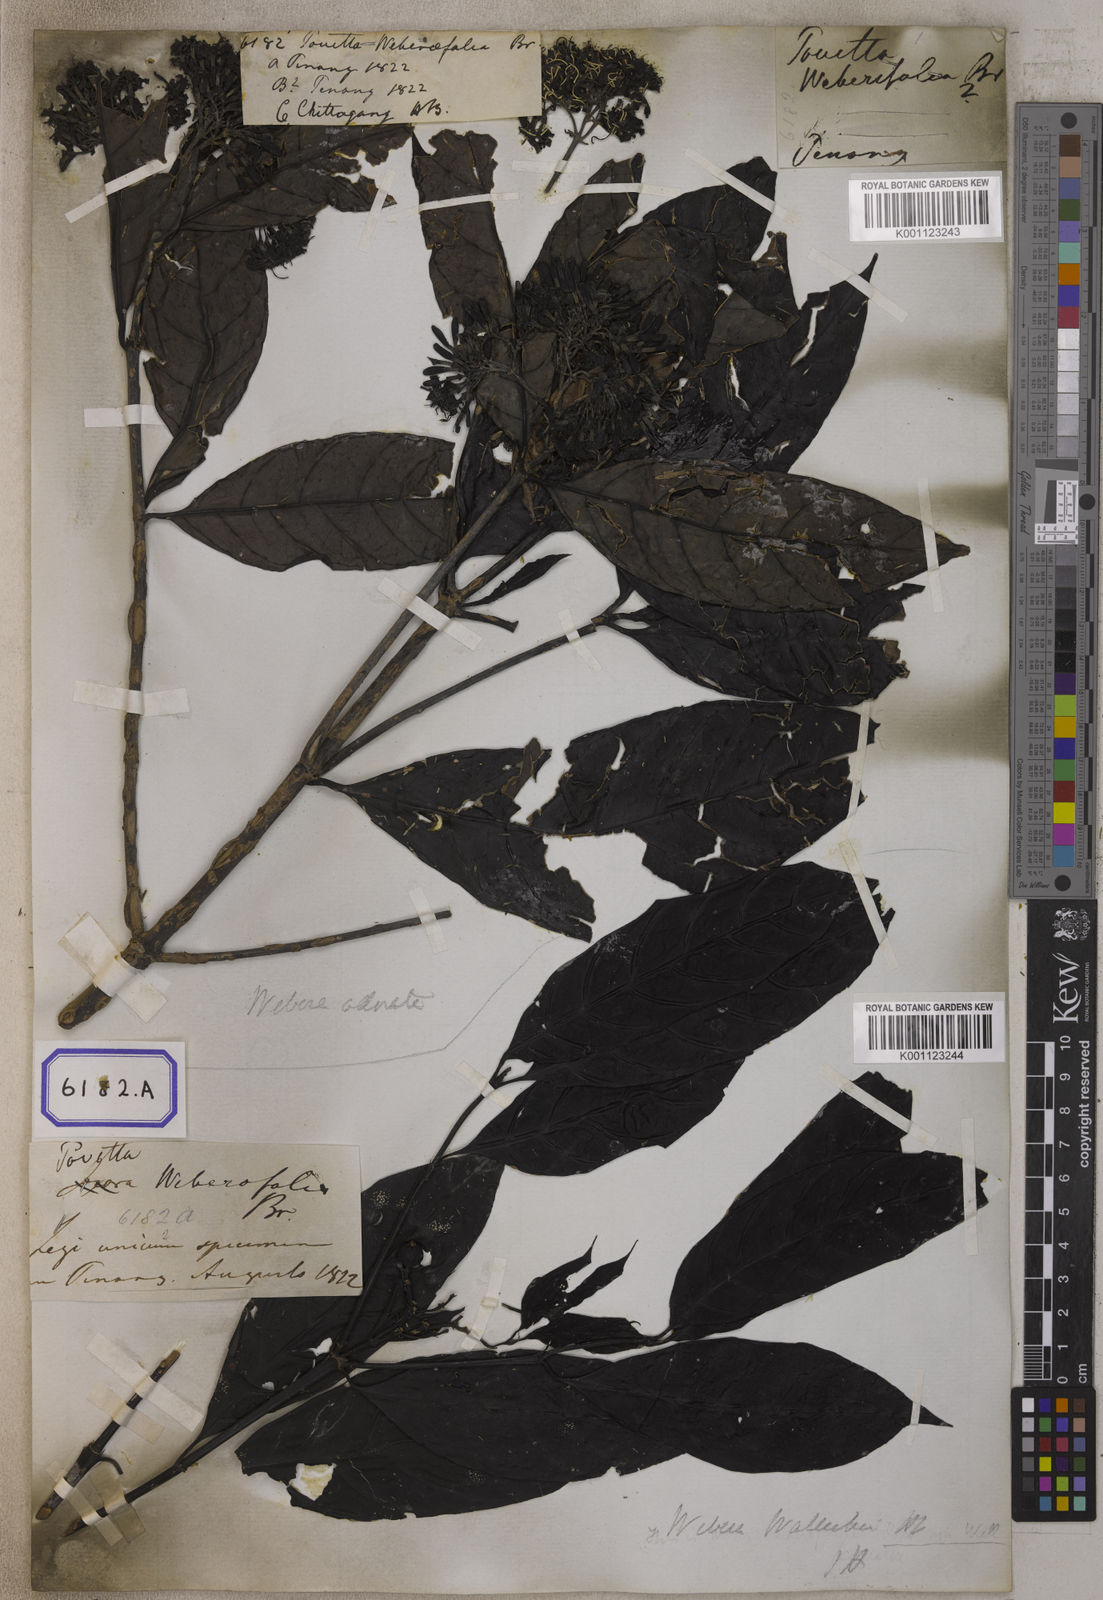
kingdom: Plantae
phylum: Tracheophyta
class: Magnoliopsida
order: Gentianales
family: Rubiaceae
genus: Pavetta
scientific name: Pavetta
